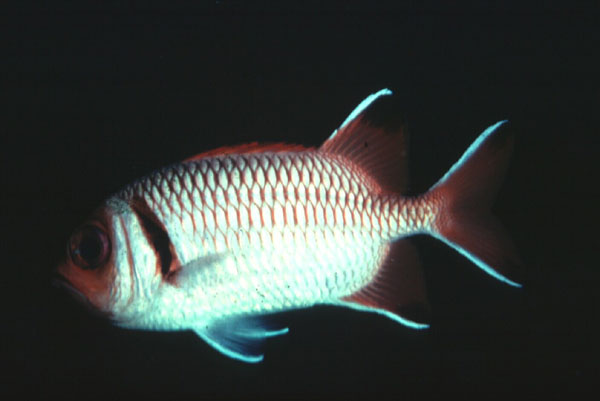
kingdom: Animalia
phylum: Chordata
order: Beryciformes
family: Holocentridae
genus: Myripristis
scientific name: Myripristis botche
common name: Blacktip soldierfish
